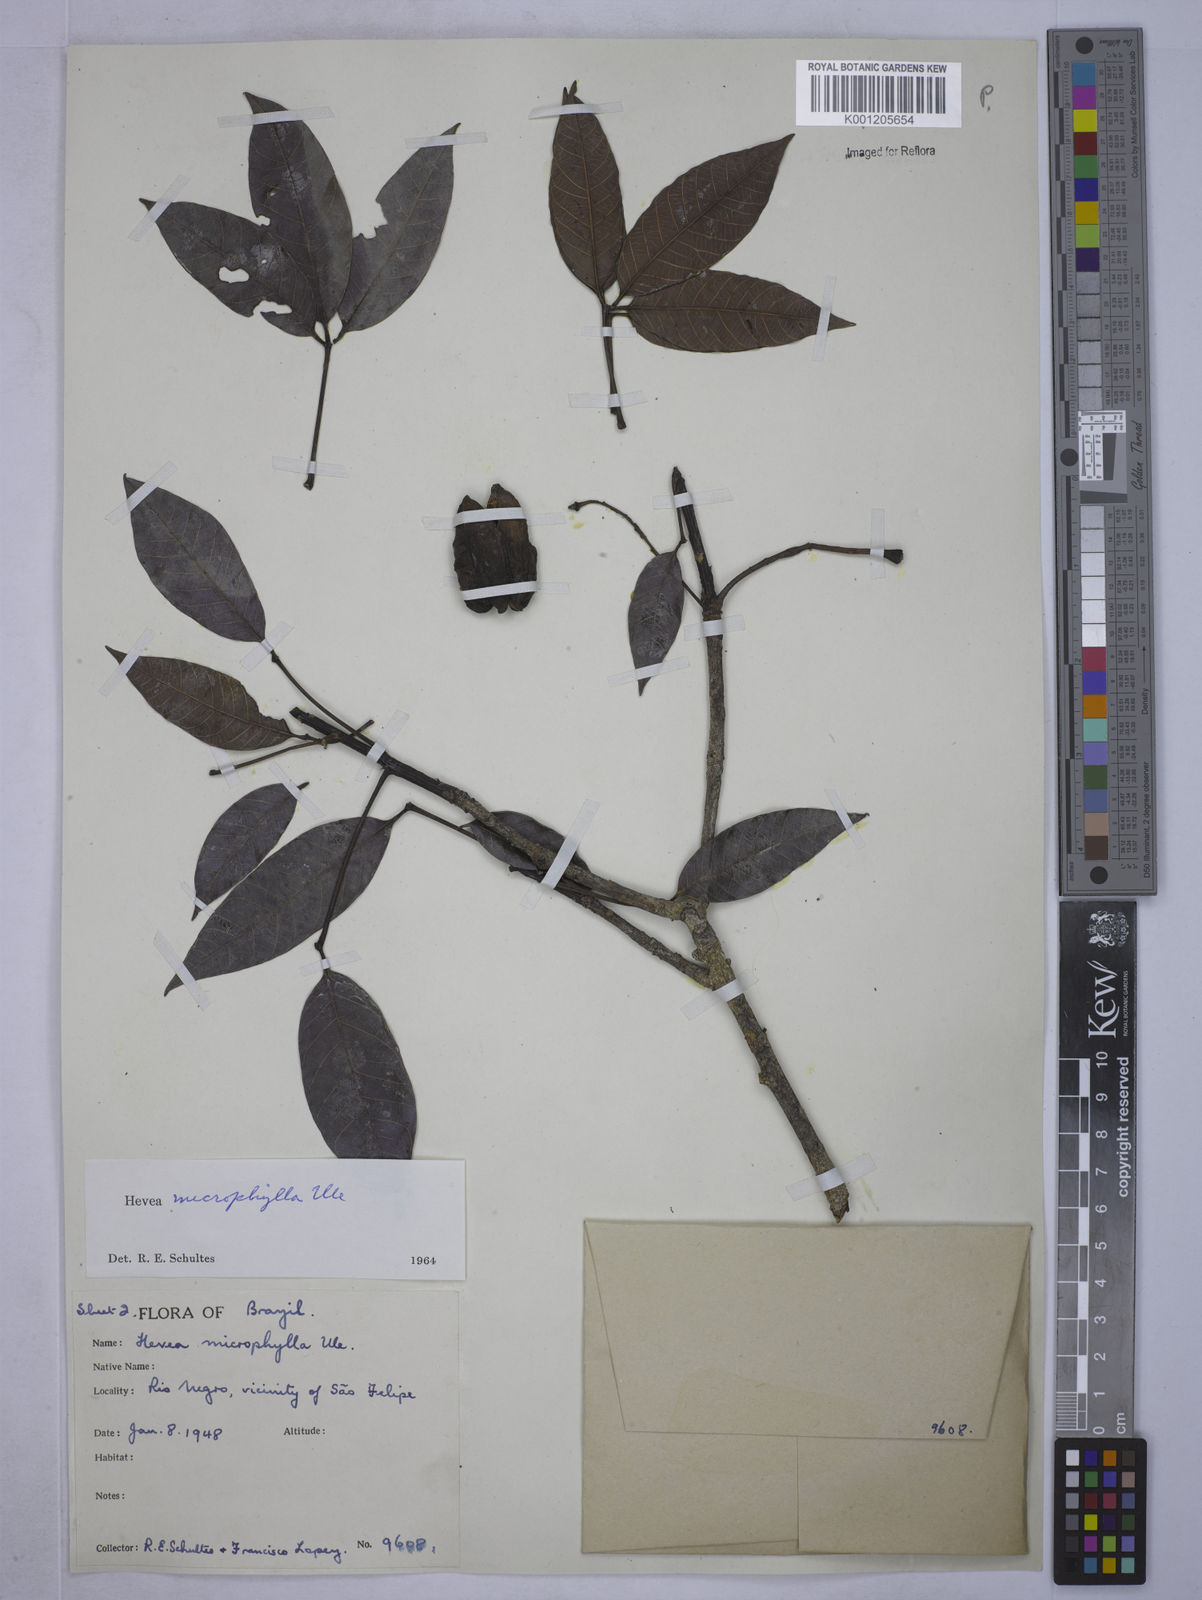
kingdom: Plantae
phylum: Tracheophyta
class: Magnoliopsida
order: Malpighiales
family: Euphorbiaceae
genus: Hevea
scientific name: Hevea microphylla
